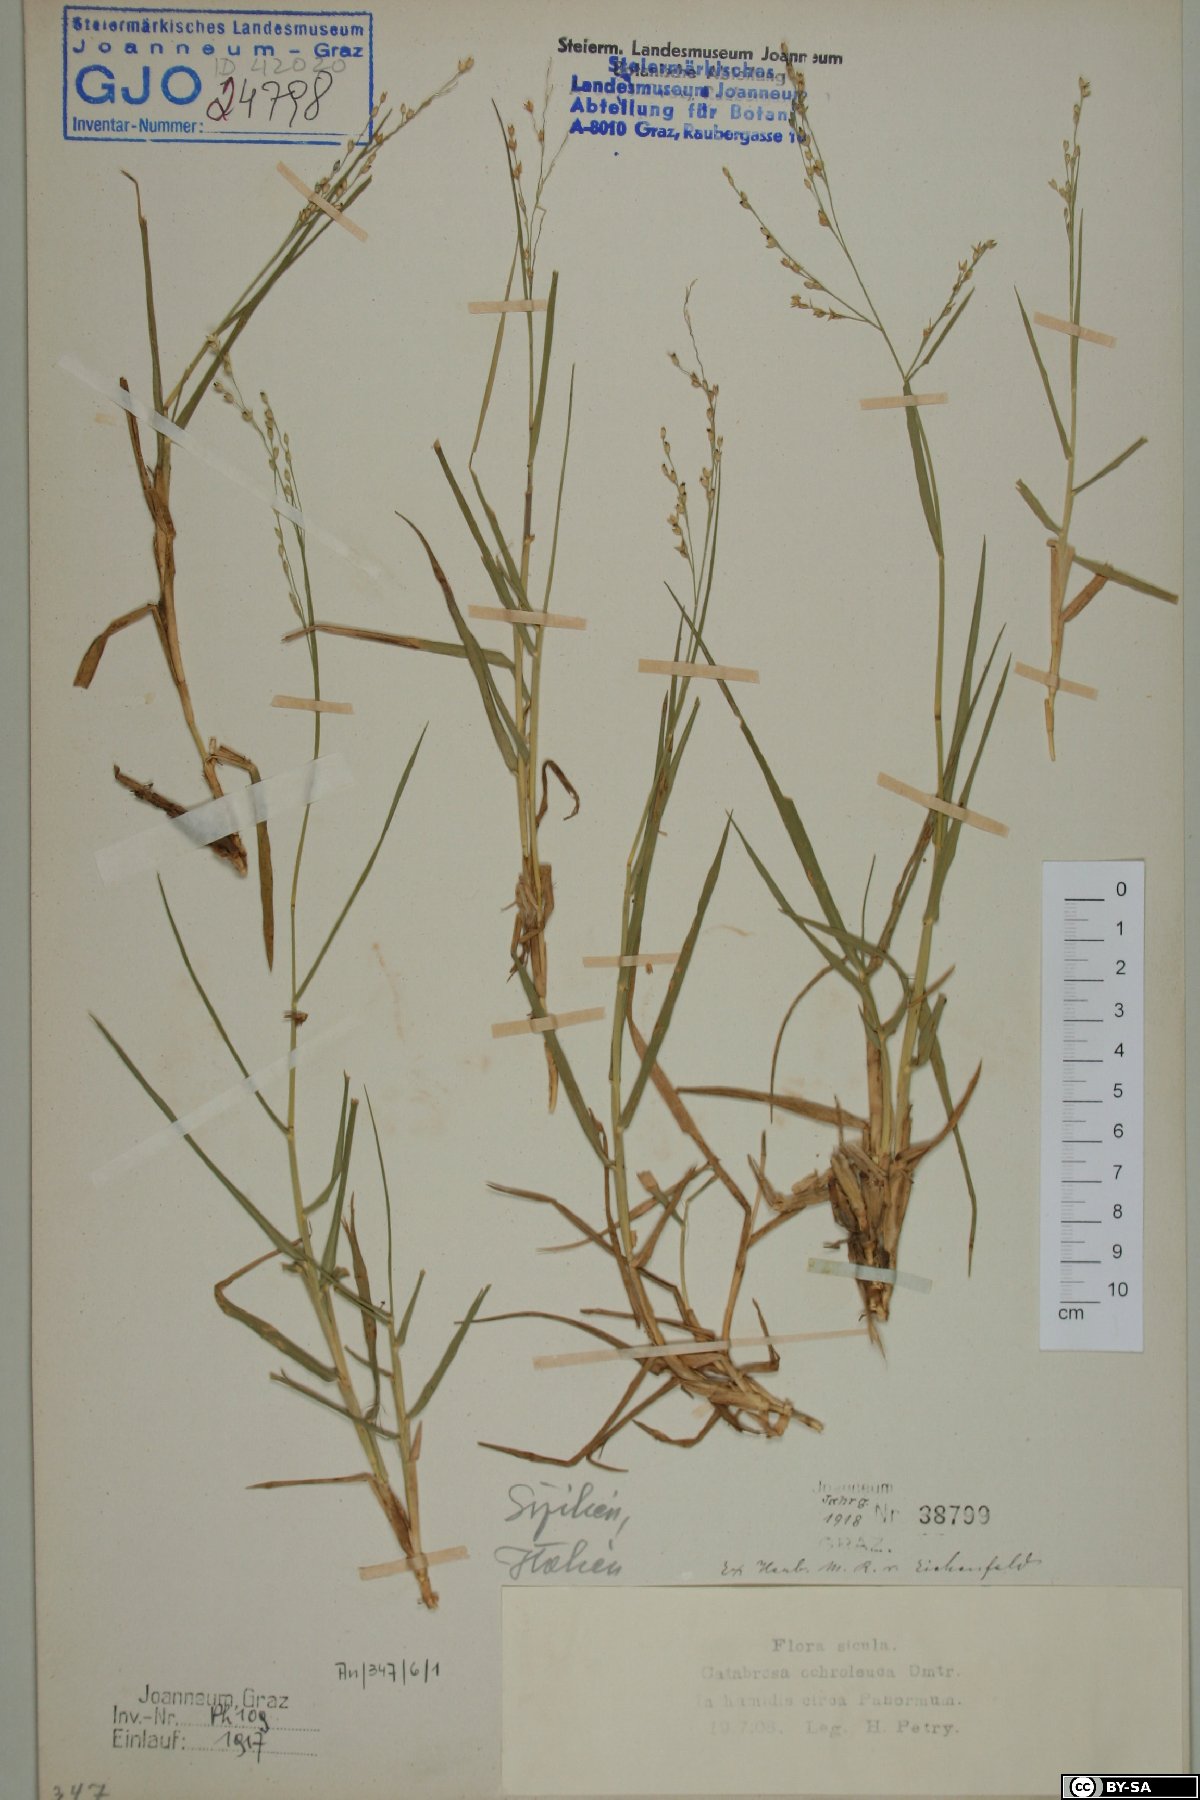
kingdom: Plantae
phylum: Tracheophyta
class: Liliopsida
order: Poales
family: Poaceae
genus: Catabrosa
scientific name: Catabrosa aquatica
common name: Whorl-grass
